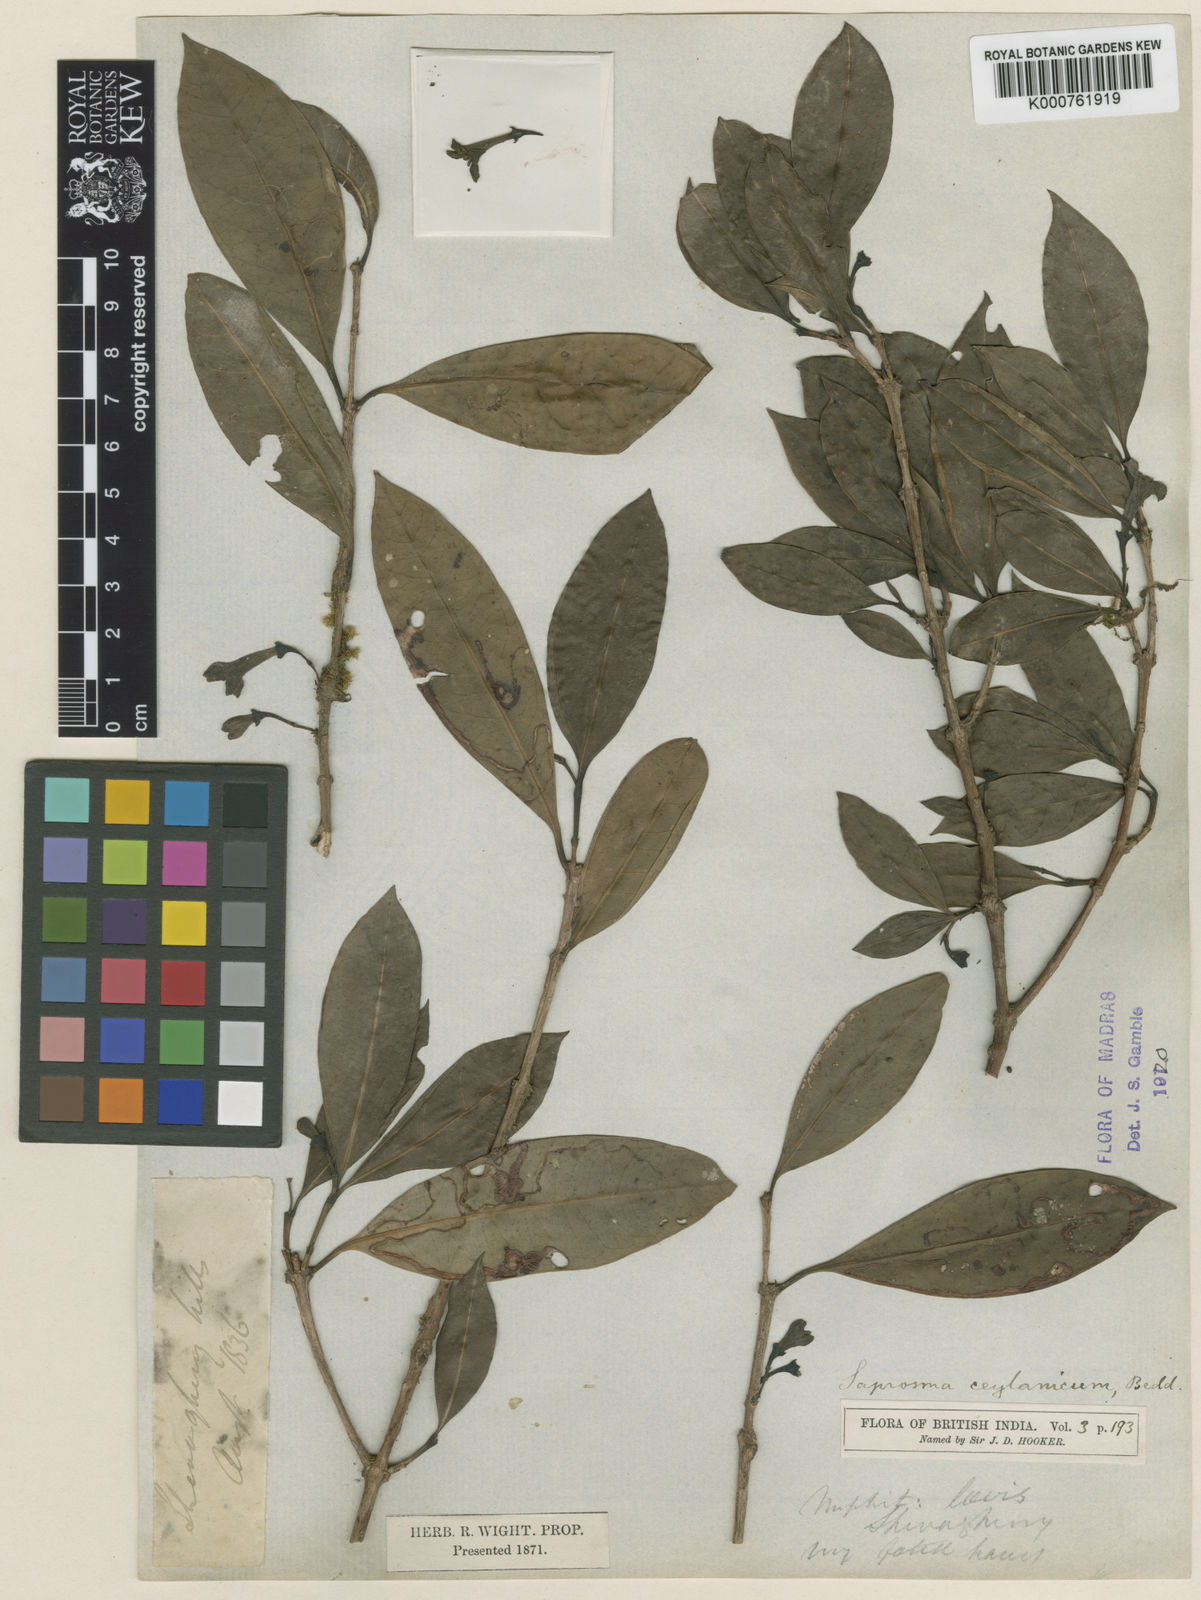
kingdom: Plantae
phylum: Tracheophyta
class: Magnoliopsida
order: Gentianales
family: Rubiaceae
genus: Saprosma
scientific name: Saprosma foetens
